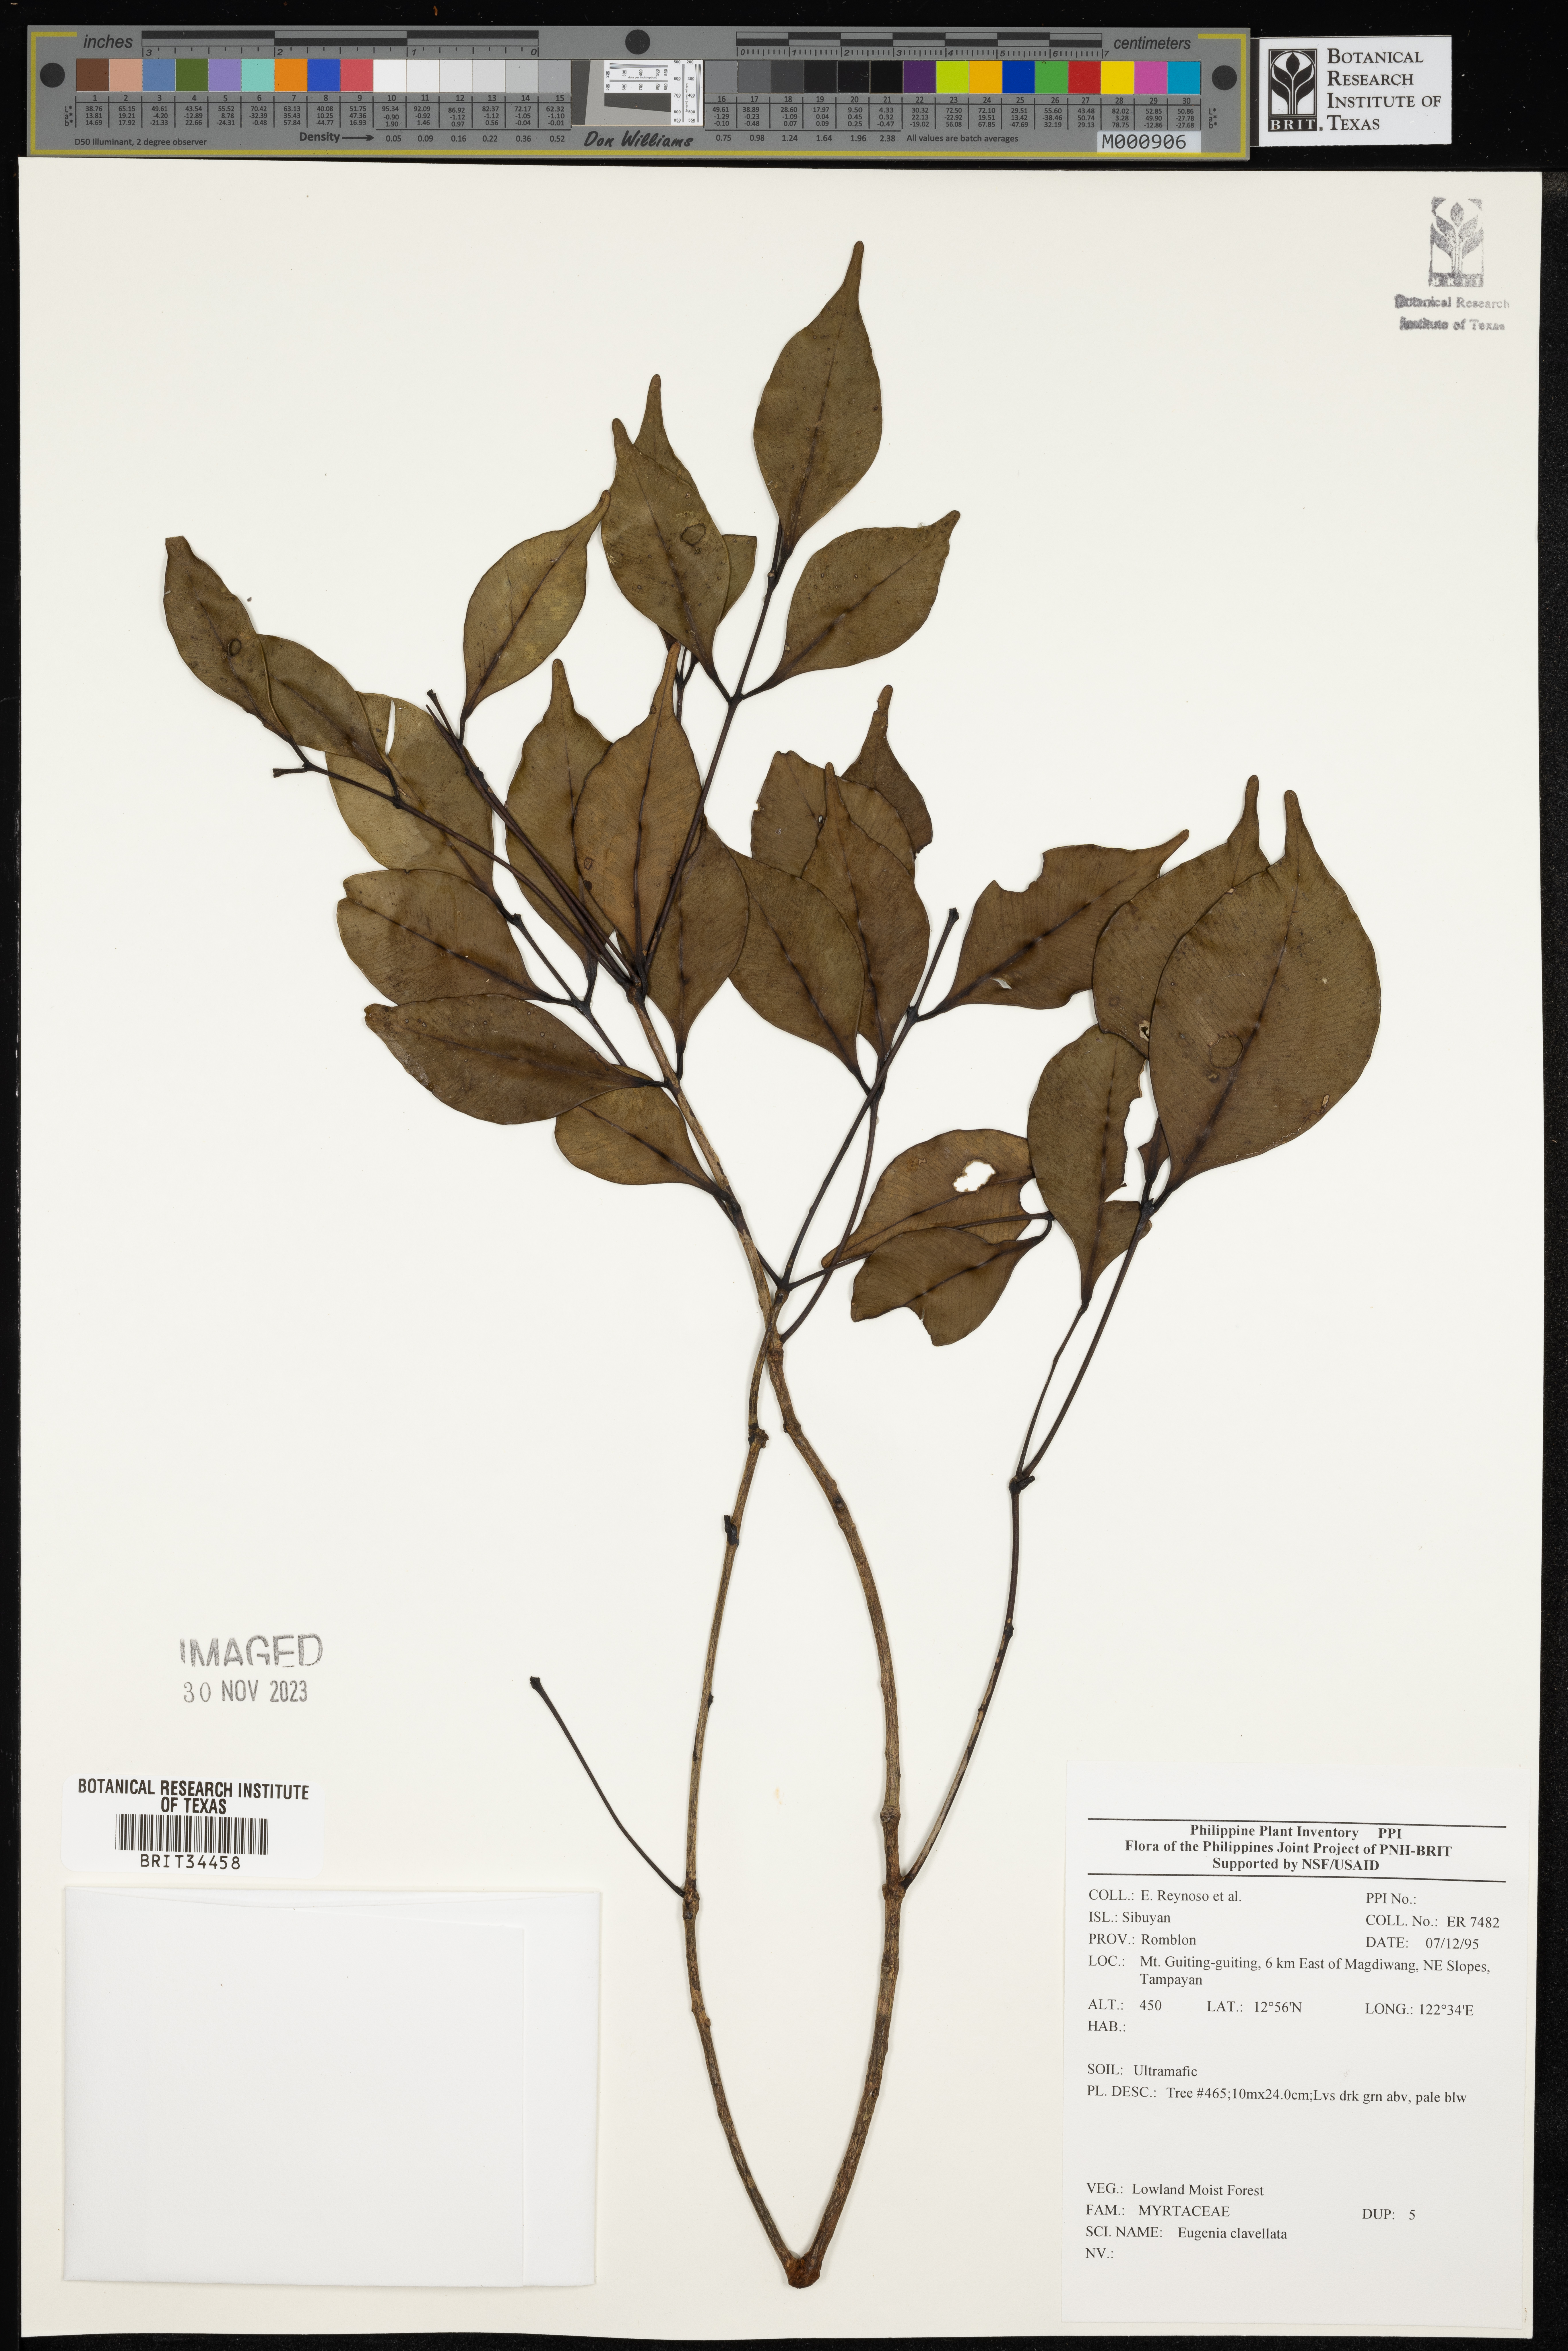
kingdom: Plantae
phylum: Tracheophyta
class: Magnoliopsida
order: Myrtales
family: Myrtaceae
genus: Eugenia
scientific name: Eugenia
